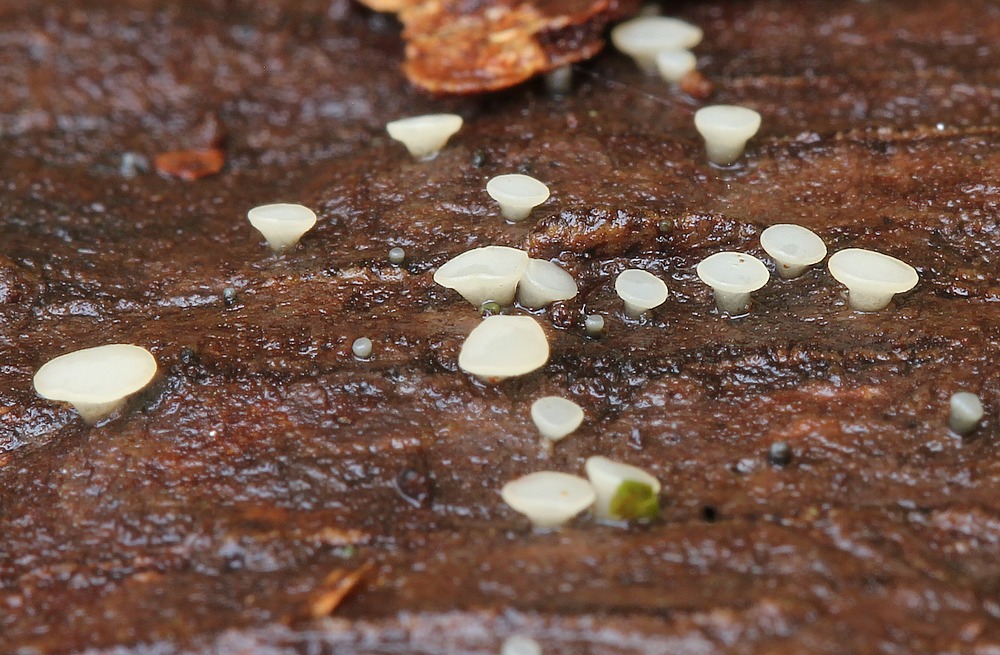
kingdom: Fungi
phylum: Ascomycota
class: Leotiomycetes
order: Helotiales
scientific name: Helotiales
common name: stilkskiveordenen
